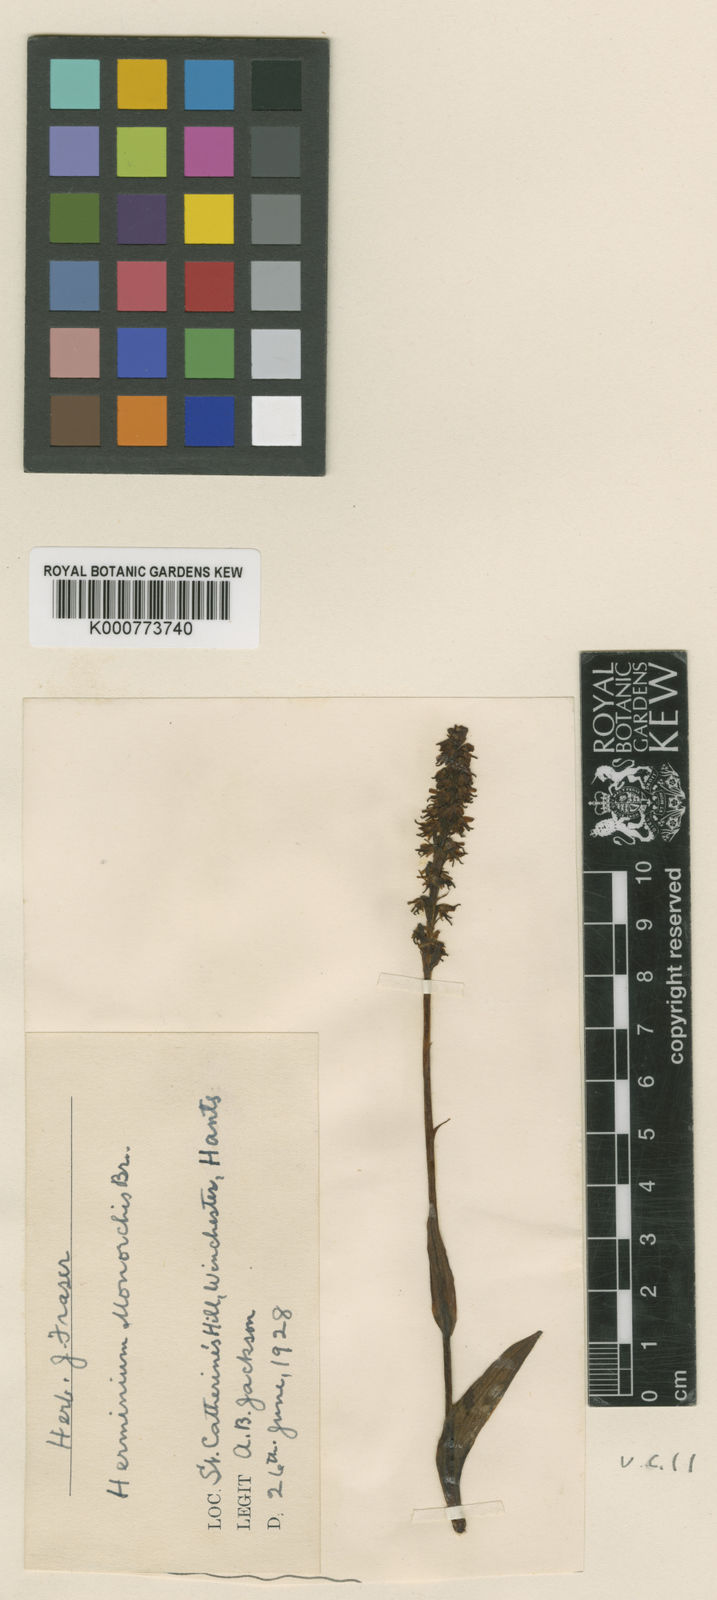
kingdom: Plantae
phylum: Tracheophyta
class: Liliopsida
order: Asparagales
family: Orchidaceae
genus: Herminium
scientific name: Herminium monorchis
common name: Musk orchid
